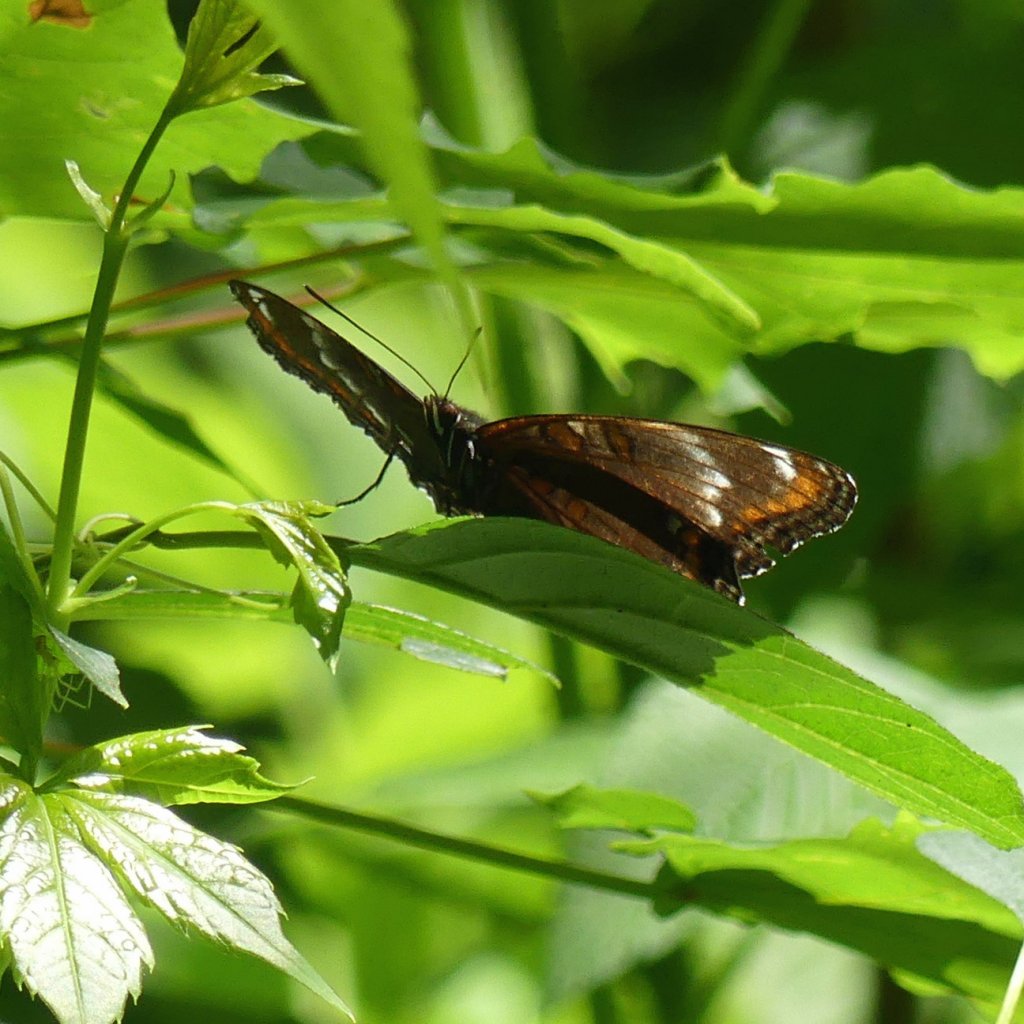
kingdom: Animalia
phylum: Arthropoda
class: Insecta
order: Lepidoptera
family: Nymphalidae
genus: Limenitis
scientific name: Limenitis
